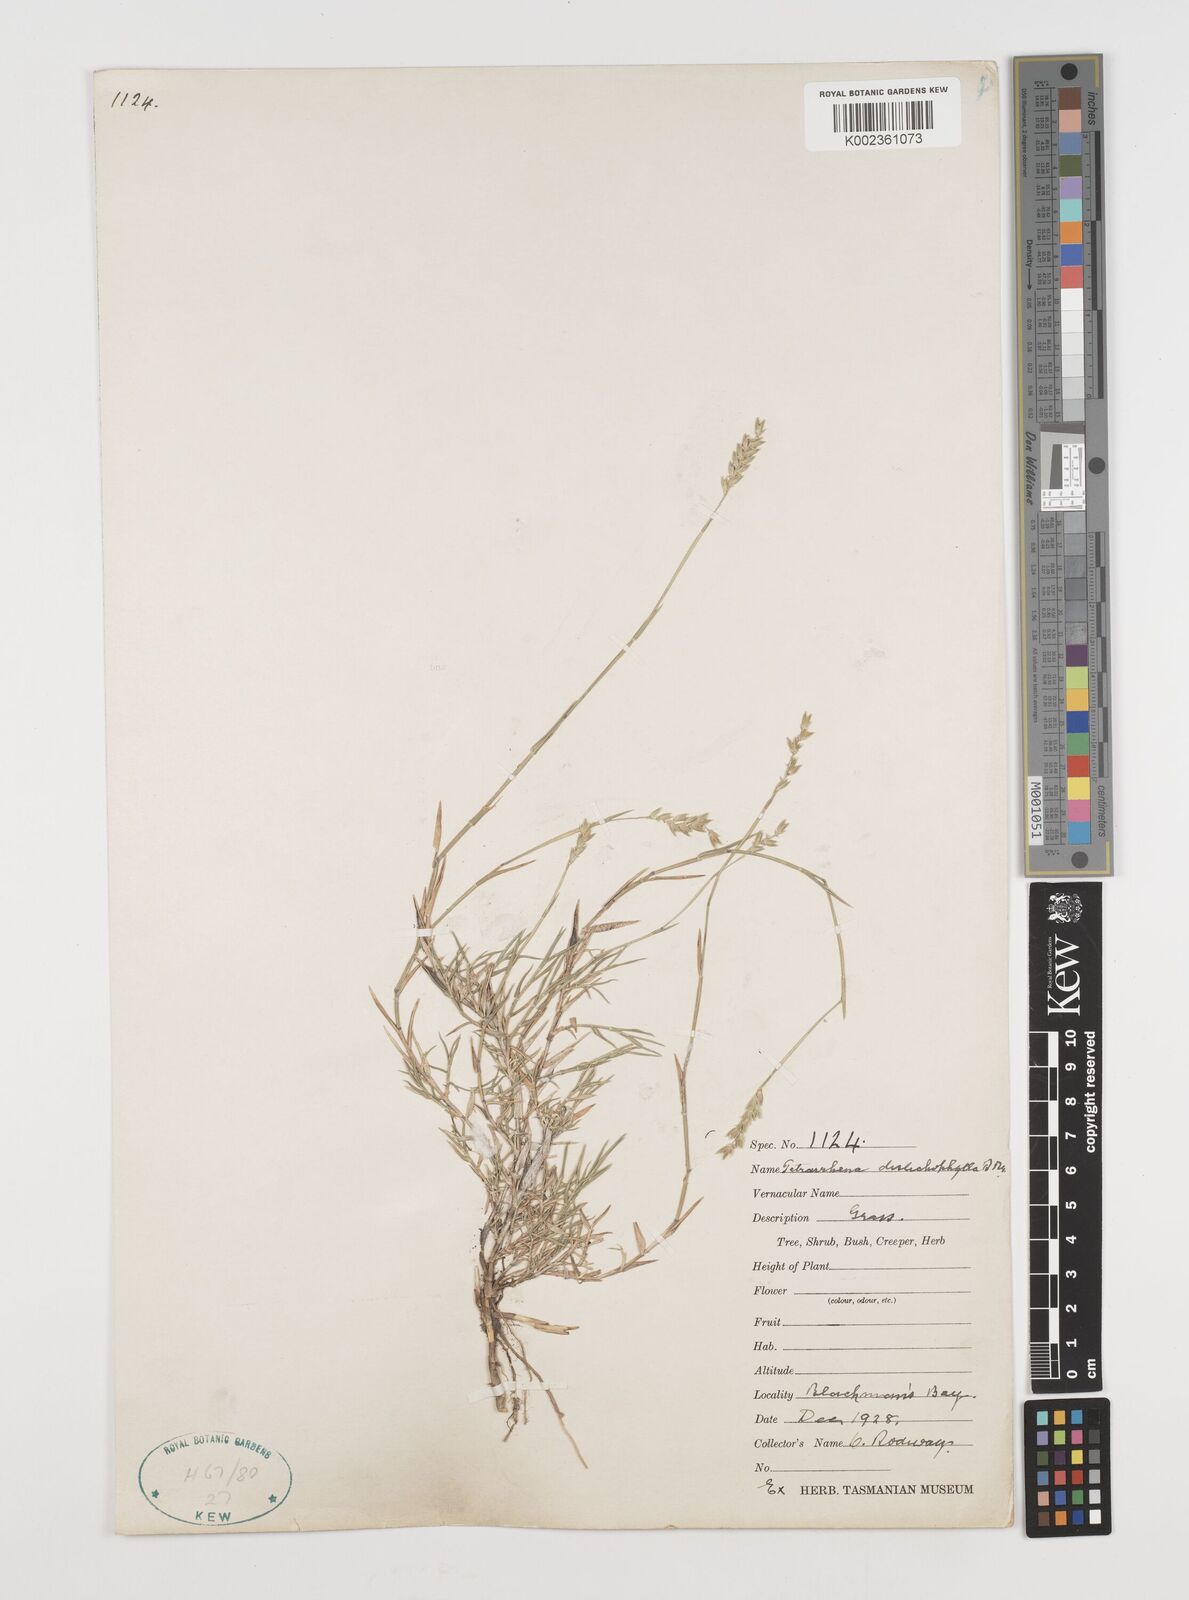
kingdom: Plantae
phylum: Tracheophyta
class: Liliopsida
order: Poales
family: Poaceae
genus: Tetrarrhena
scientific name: Tetrarrhena distichophylla
